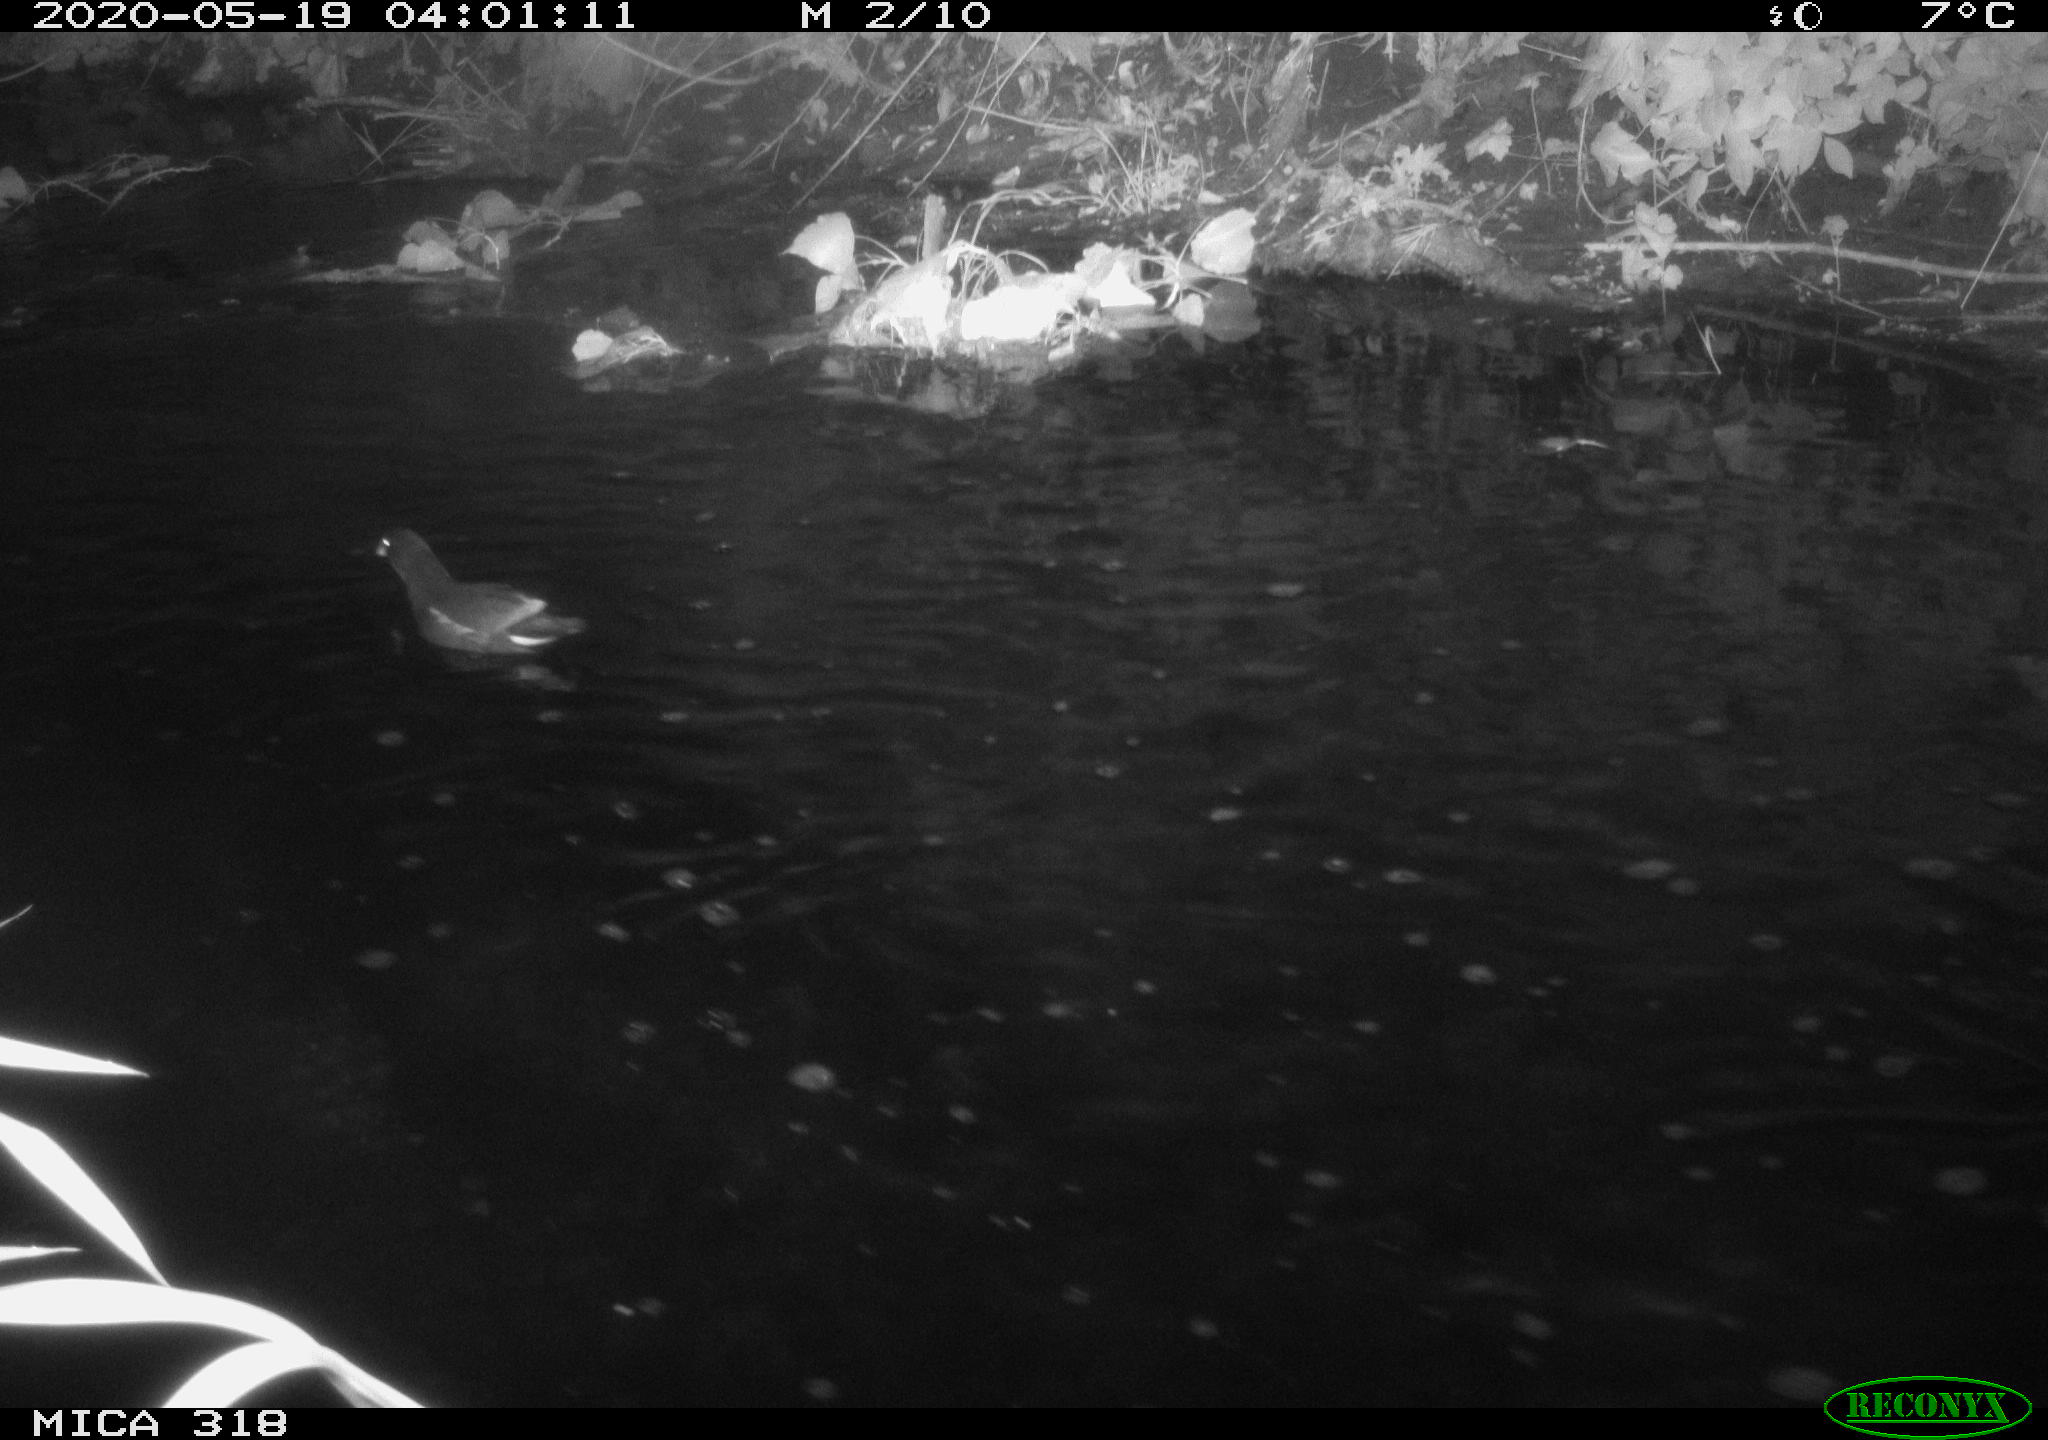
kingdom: Animalia
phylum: Chordata
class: Aves
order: Gruiformes
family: Rallidae
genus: Gallinula
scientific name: Gallinula chloropus
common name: Common moorhen
